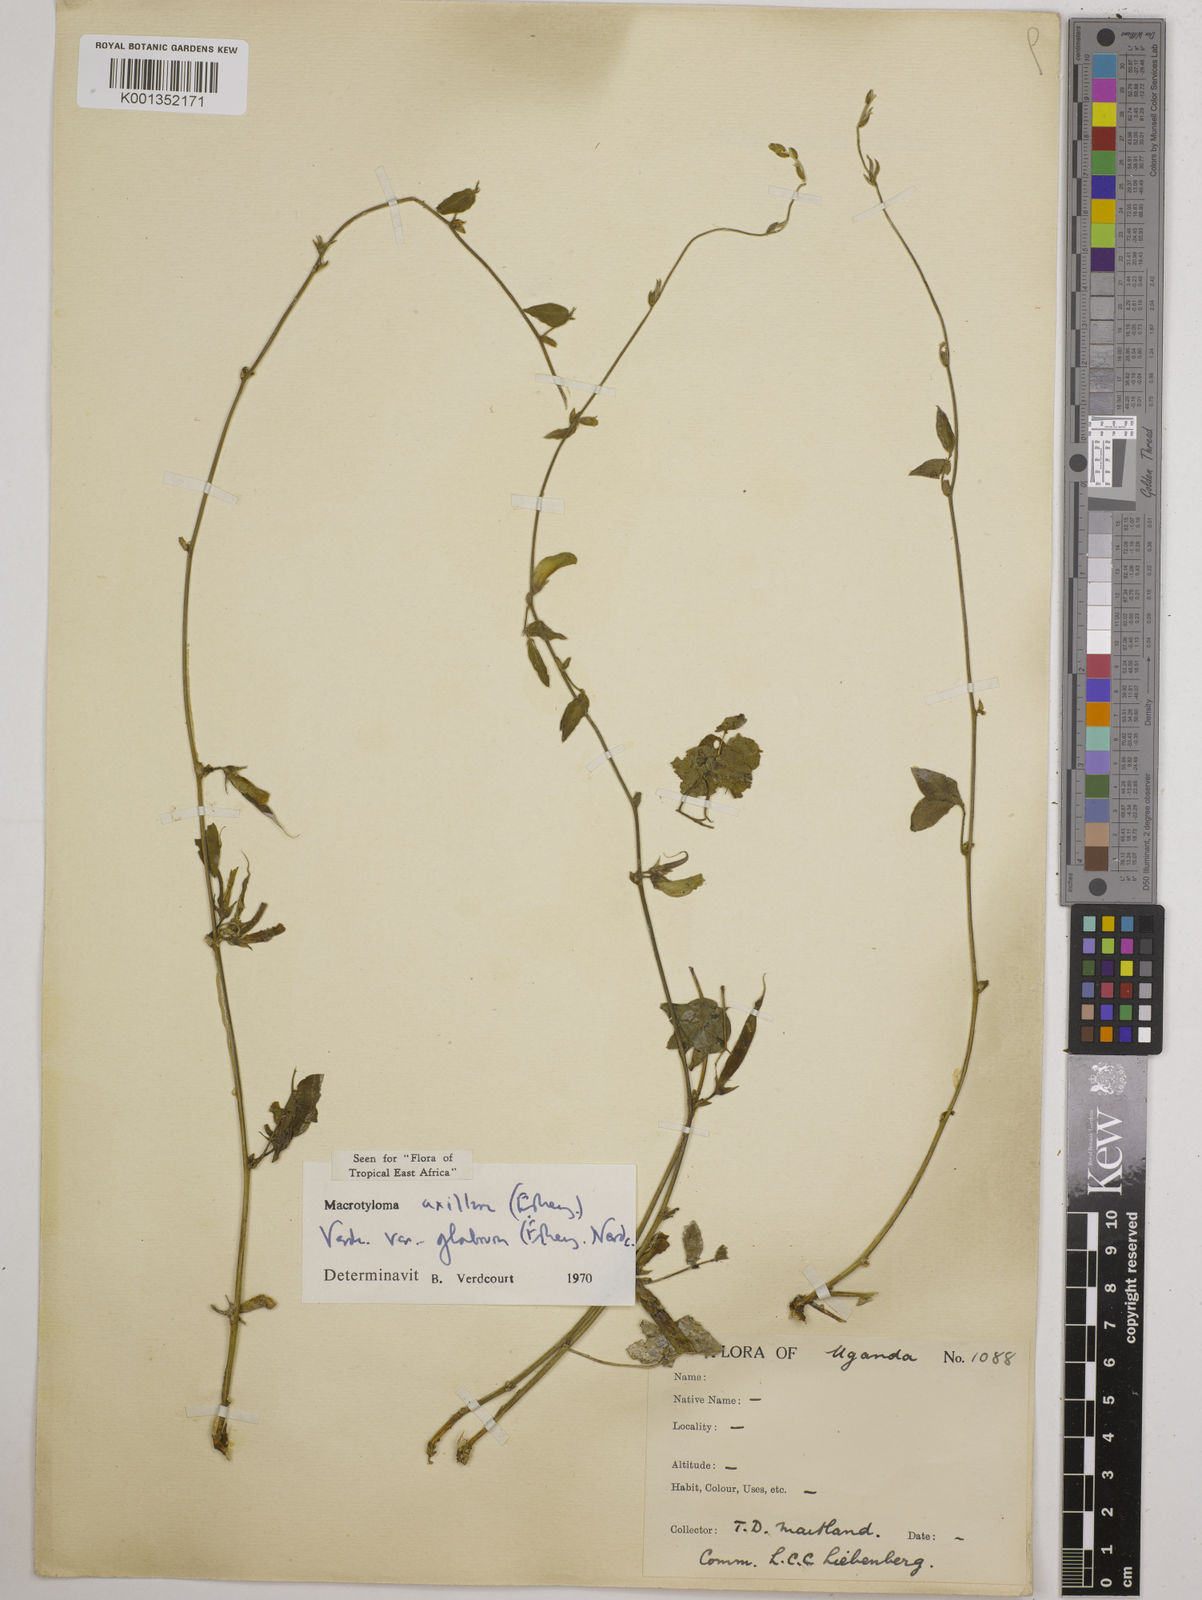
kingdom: Plantae
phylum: Tracheophyta
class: Magnoliopsida
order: Fabales
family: Fabaceae
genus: Macrotyloma
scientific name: Macrotyloma
